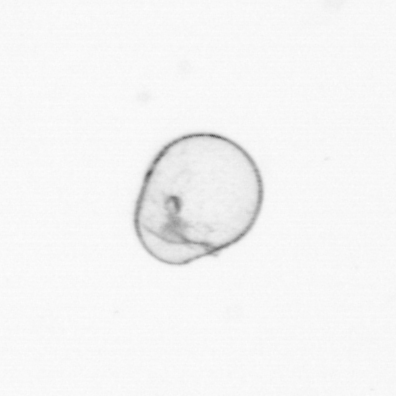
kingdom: Chromista
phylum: Myzozoa
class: Dinophyceae
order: Noctilucales
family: Noctilucaceae
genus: Noctiluca
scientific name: Noctiluca scintillans
